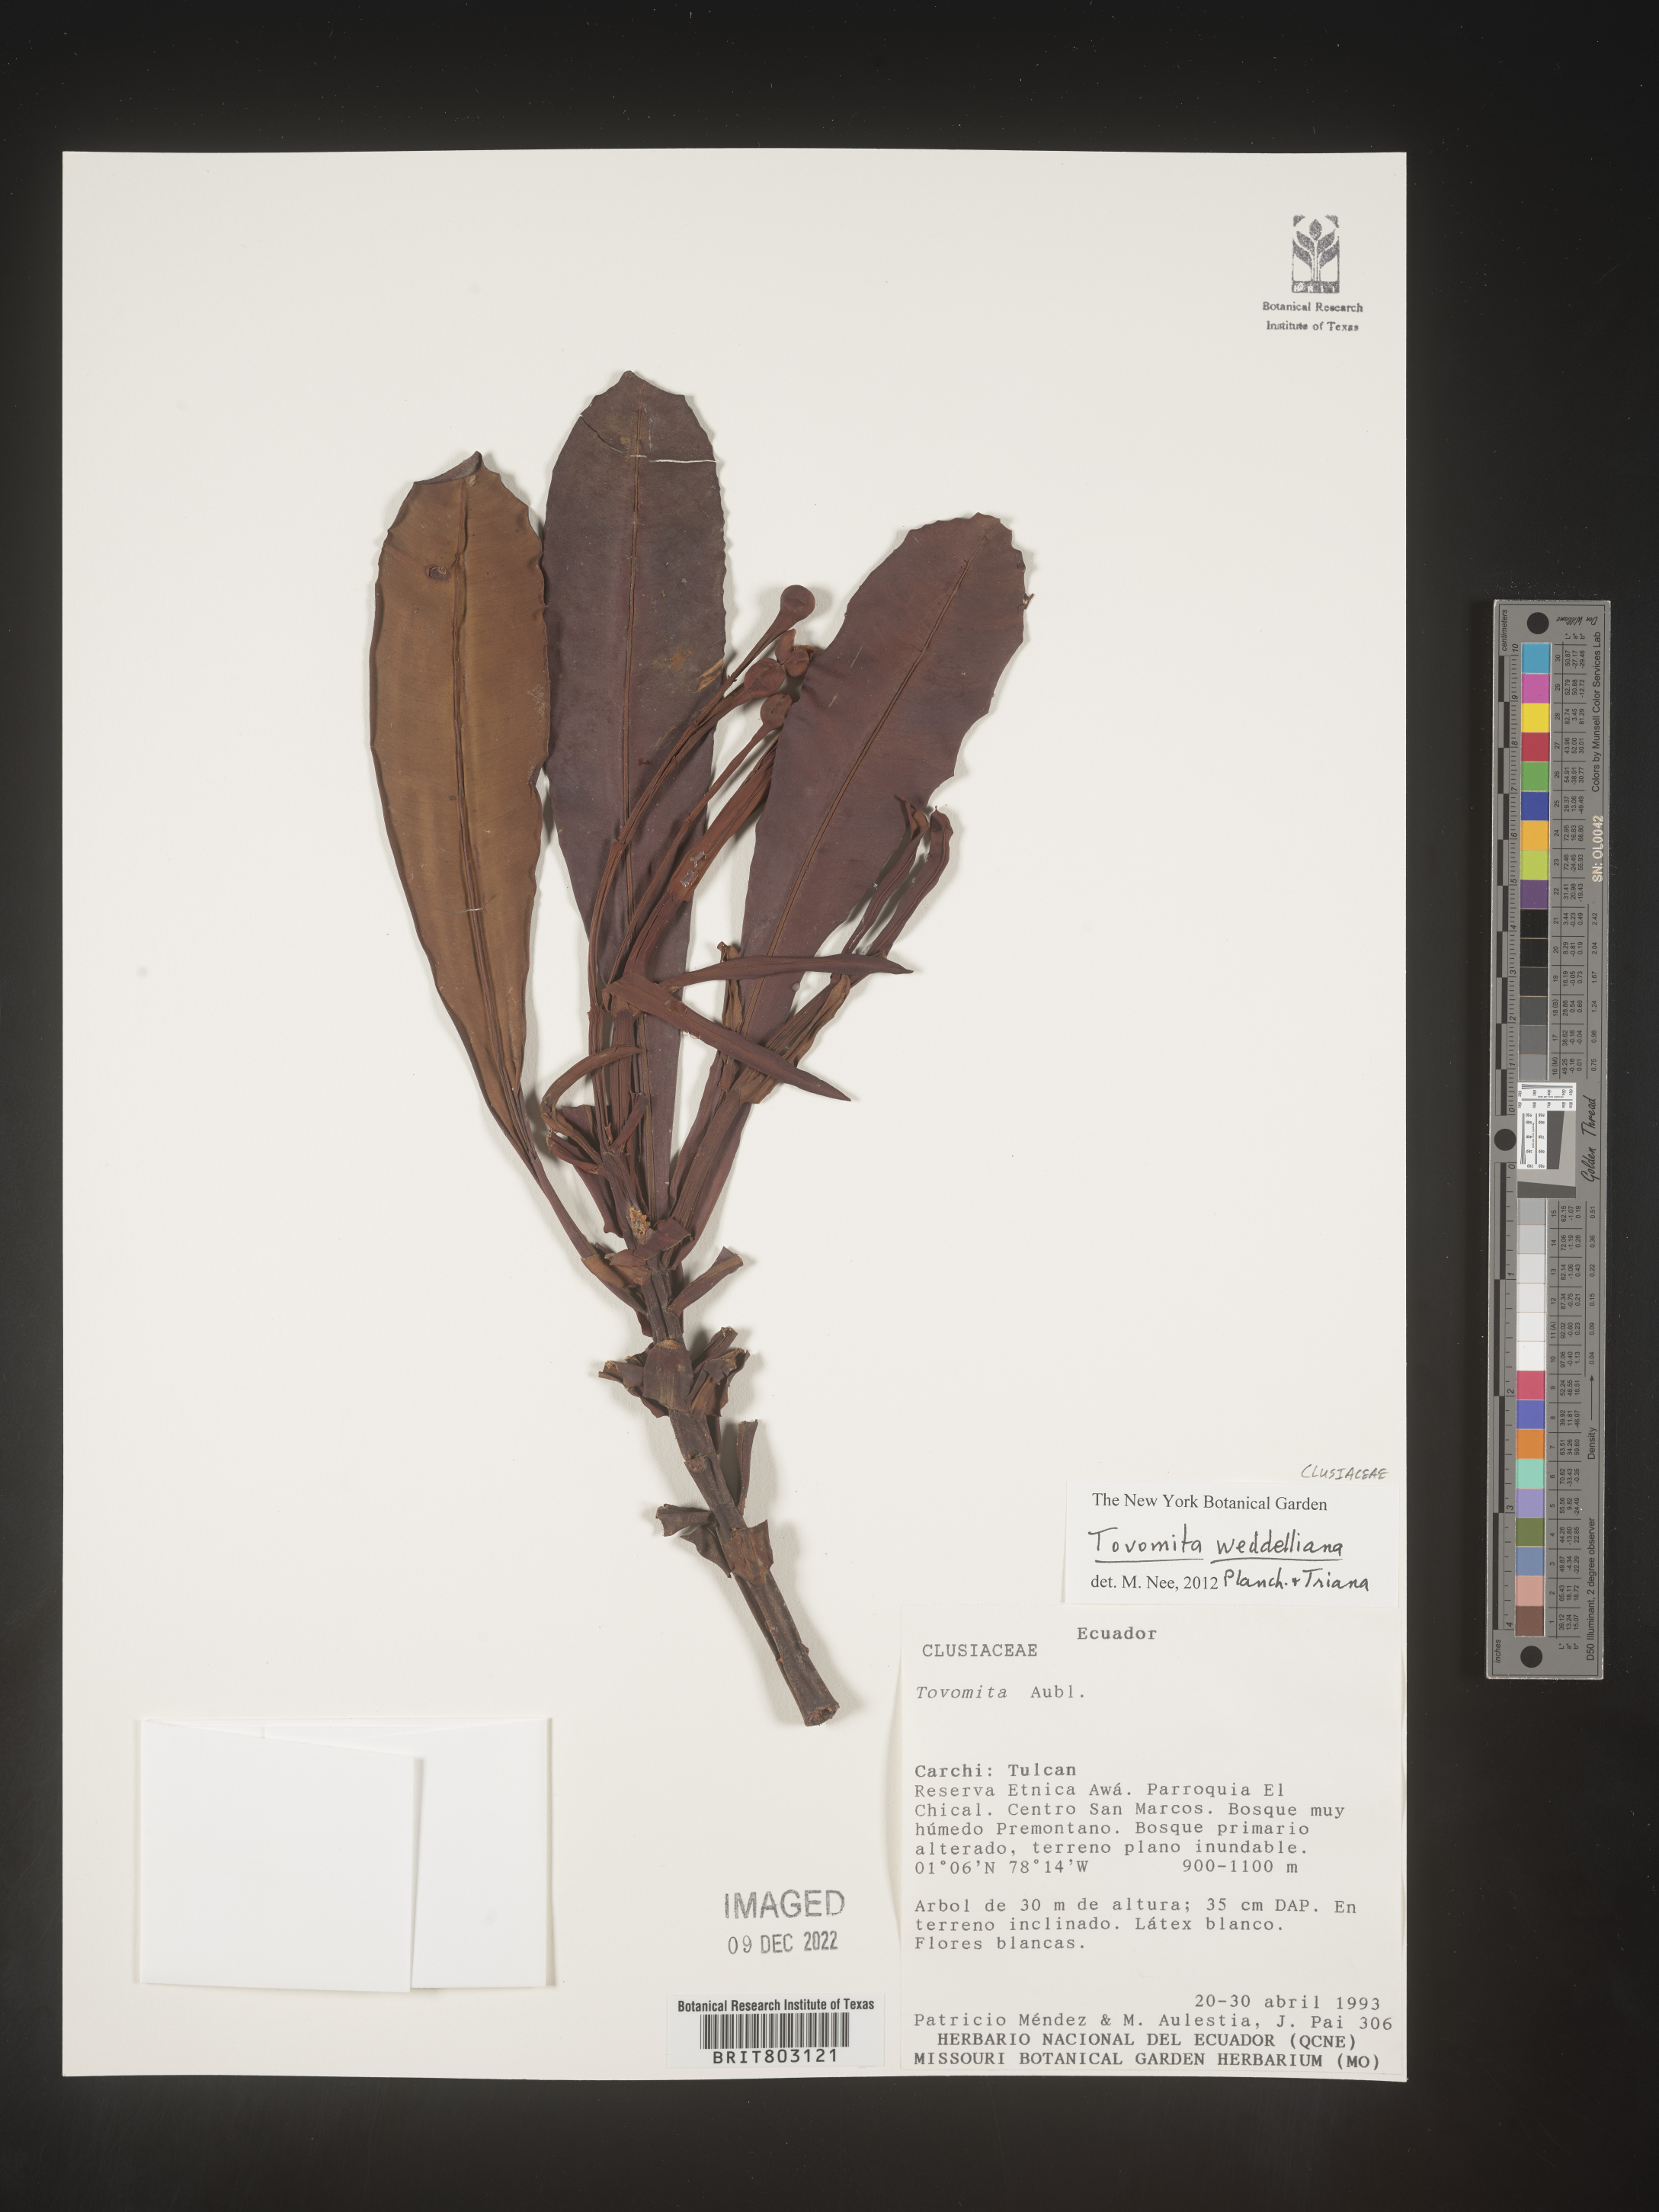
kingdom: Plantae
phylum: Tracheophyta
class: Magnoliopsida
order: Malpighiales
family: Clusiaceae
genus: Arawakia
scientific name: Arawakia weddelliana
